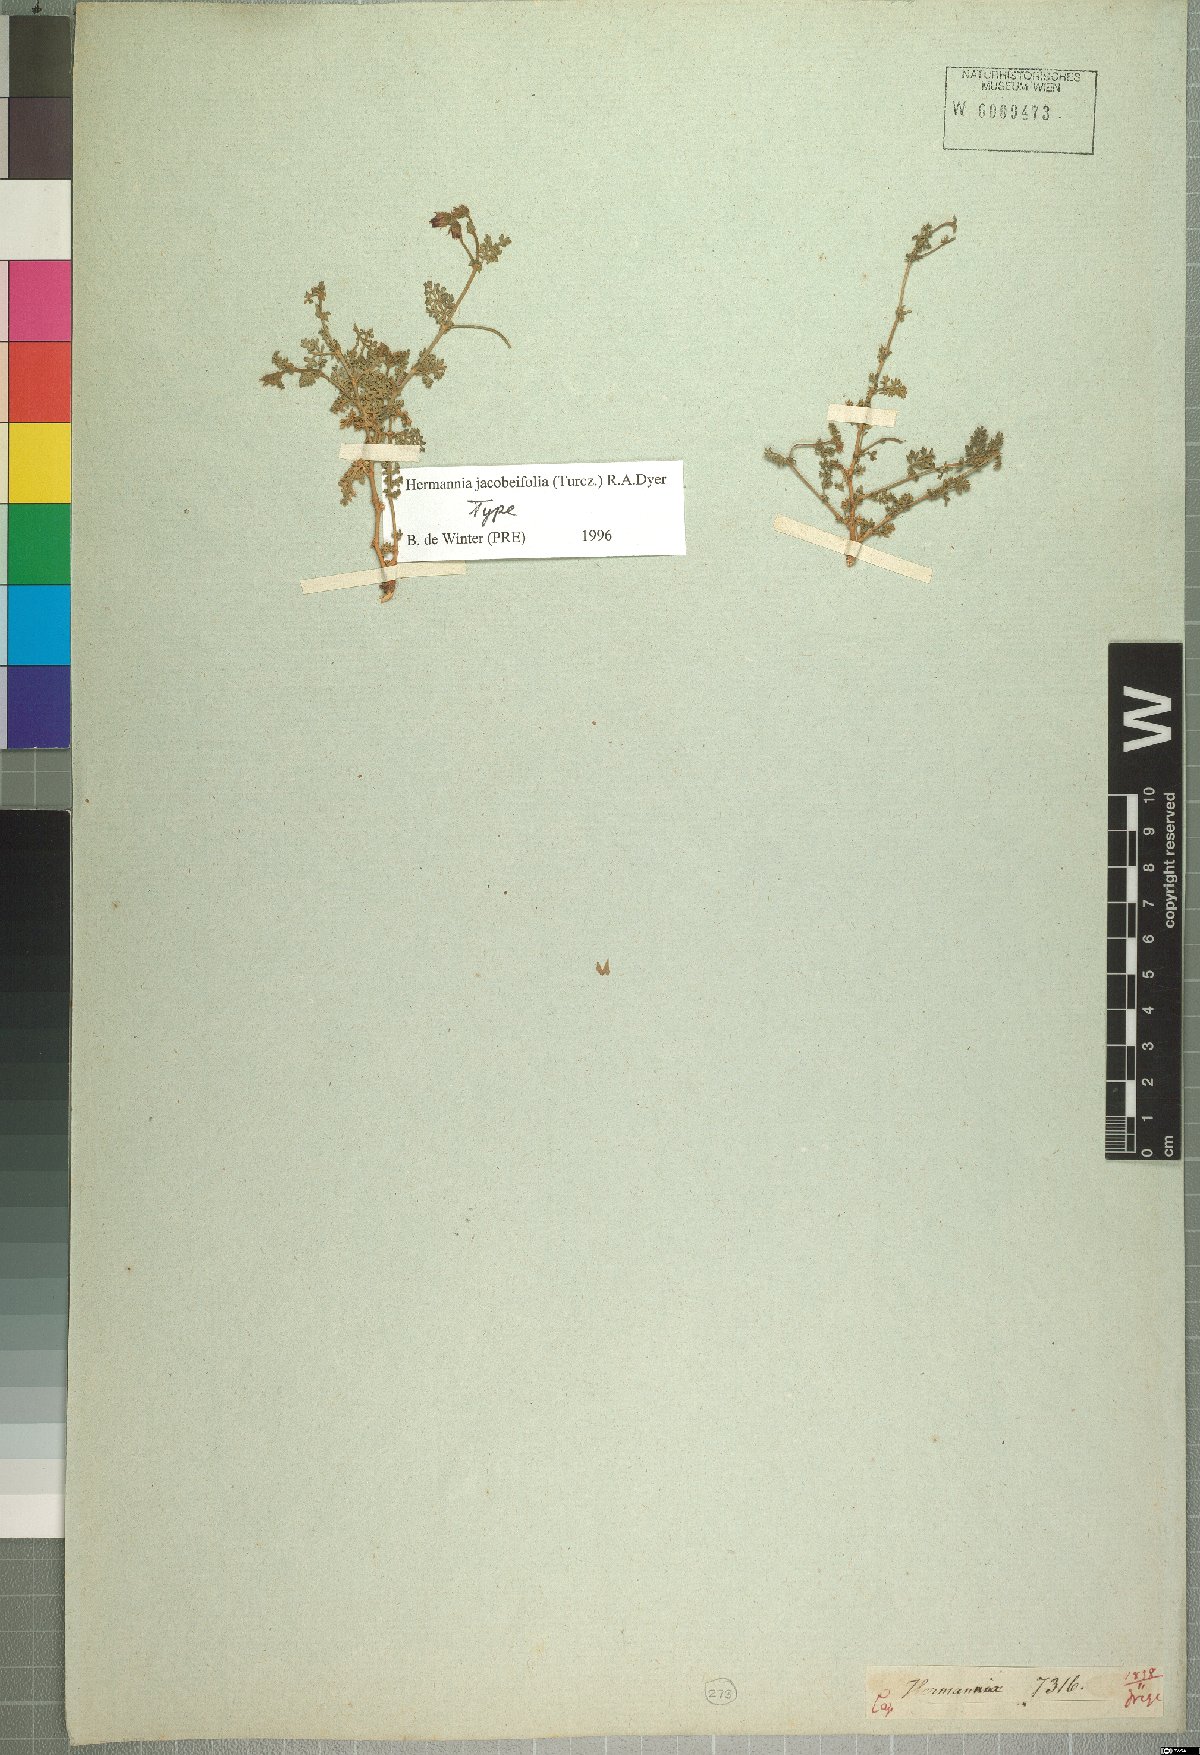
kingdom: Plantae
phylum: Tracheophyta
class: Magnoliopsida
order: Malvales
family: Malvaceae
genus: Hermannia
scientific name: Hermannia jacobeifolia
